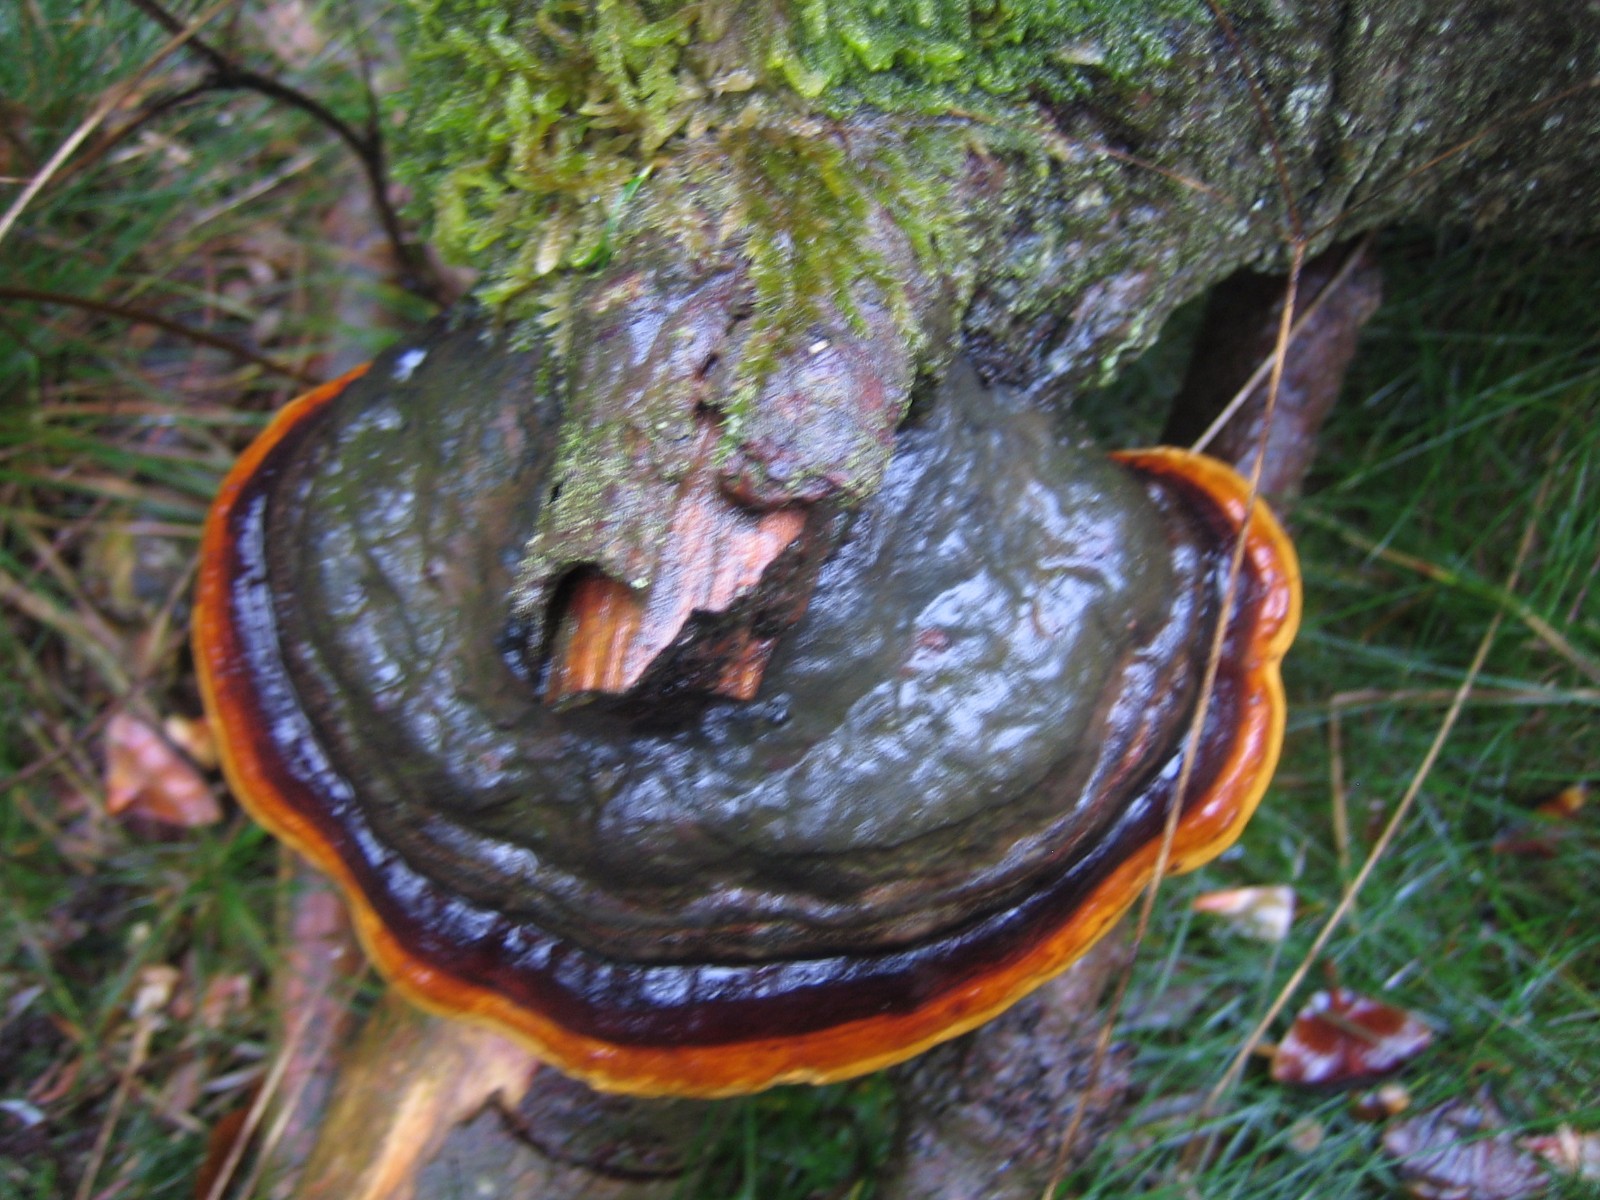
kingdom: Fungi
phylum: Basidiomycota
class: Agaricomycetes
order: Polyporales
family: Fomitopsidaceae
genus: Fomitopsis
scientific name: Fomitopsis pinicola
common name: randbæltet hovporesvamp
